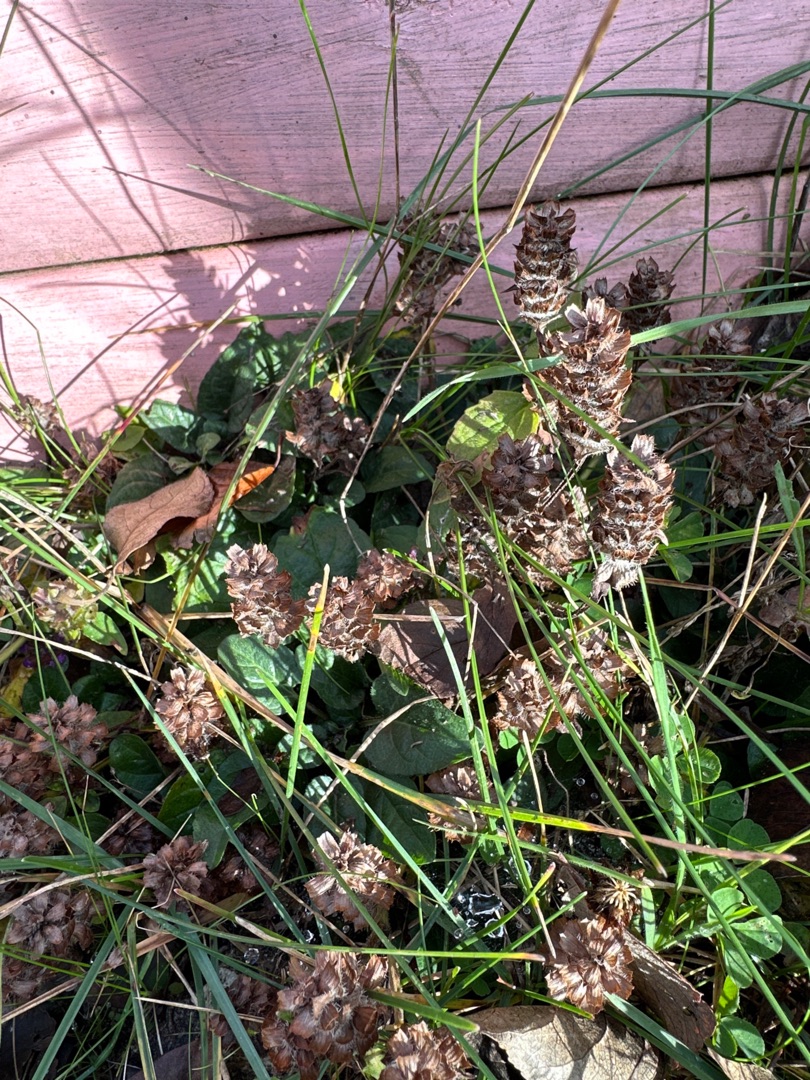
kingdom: Plantae
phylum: Tracheophyta
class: Magnoliopsida
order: Lamiales
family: Lamiaceae
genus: Prunella
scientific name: Prunella vulgaris
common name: Almindelig brunelle
